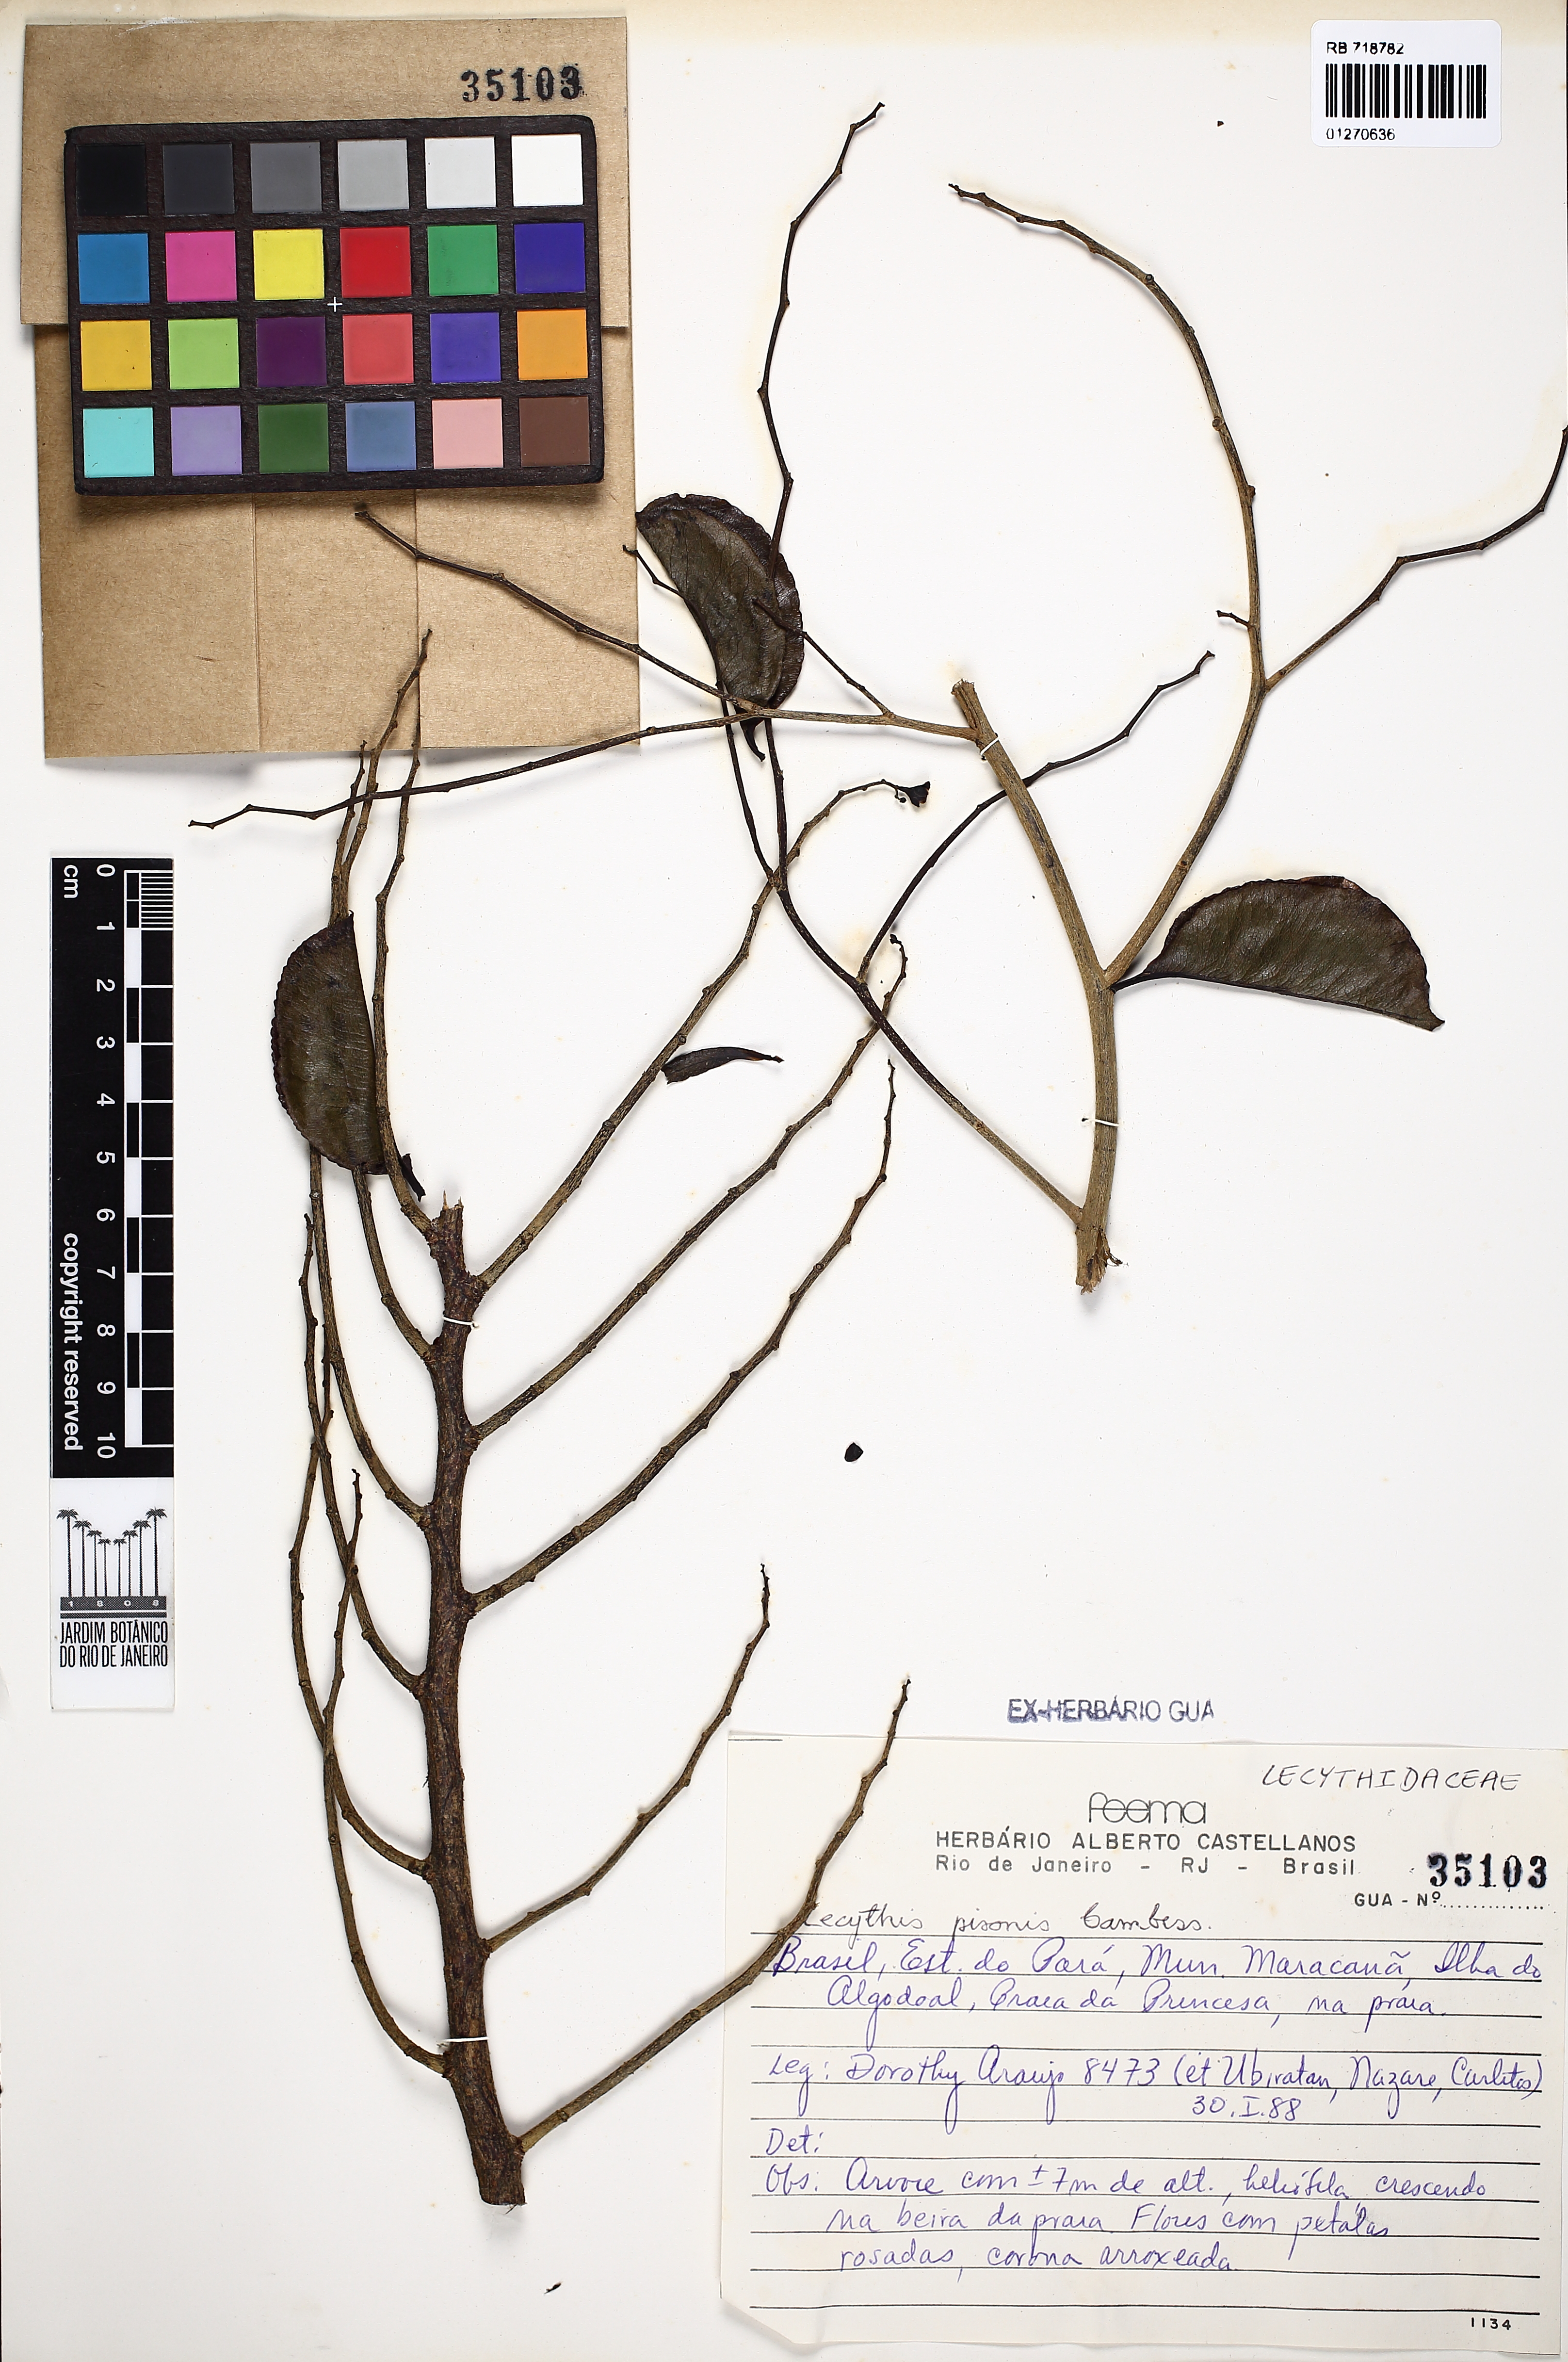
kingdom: Plantae
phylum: Tracheophyta
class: Magnoliopsida
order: Ericales
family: Lecythidaceae
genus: Lecythis
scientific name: Lecythis pisonis
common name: Paradise-nut
